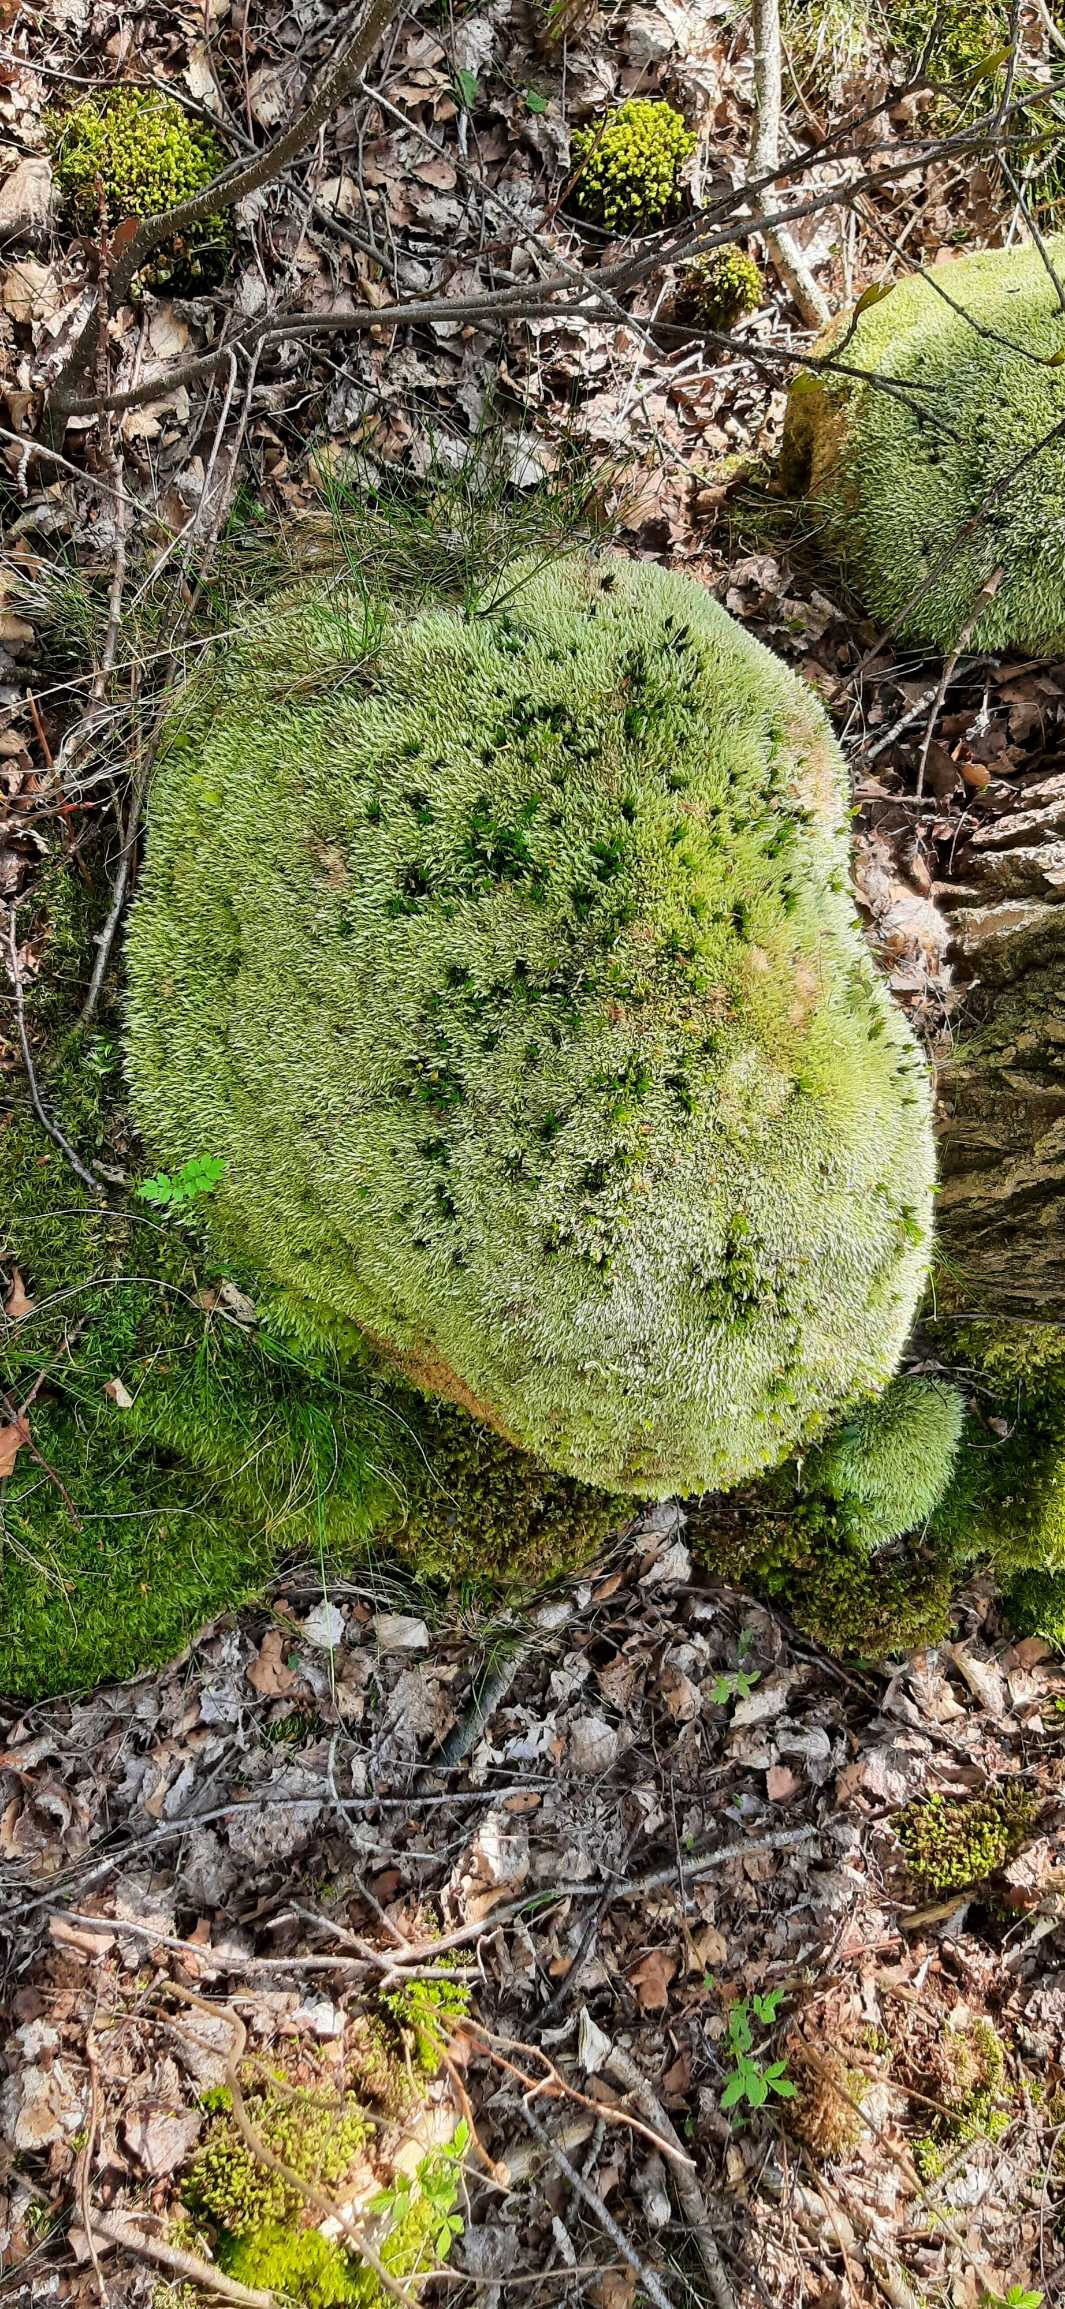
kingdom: Plantae
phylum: Bryophyta
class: Bryopsida
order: Dicranales
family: Leucobryaceae
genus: Leucobryum
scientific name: Leucobryum glaucum
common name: Almindelig hvidmos
